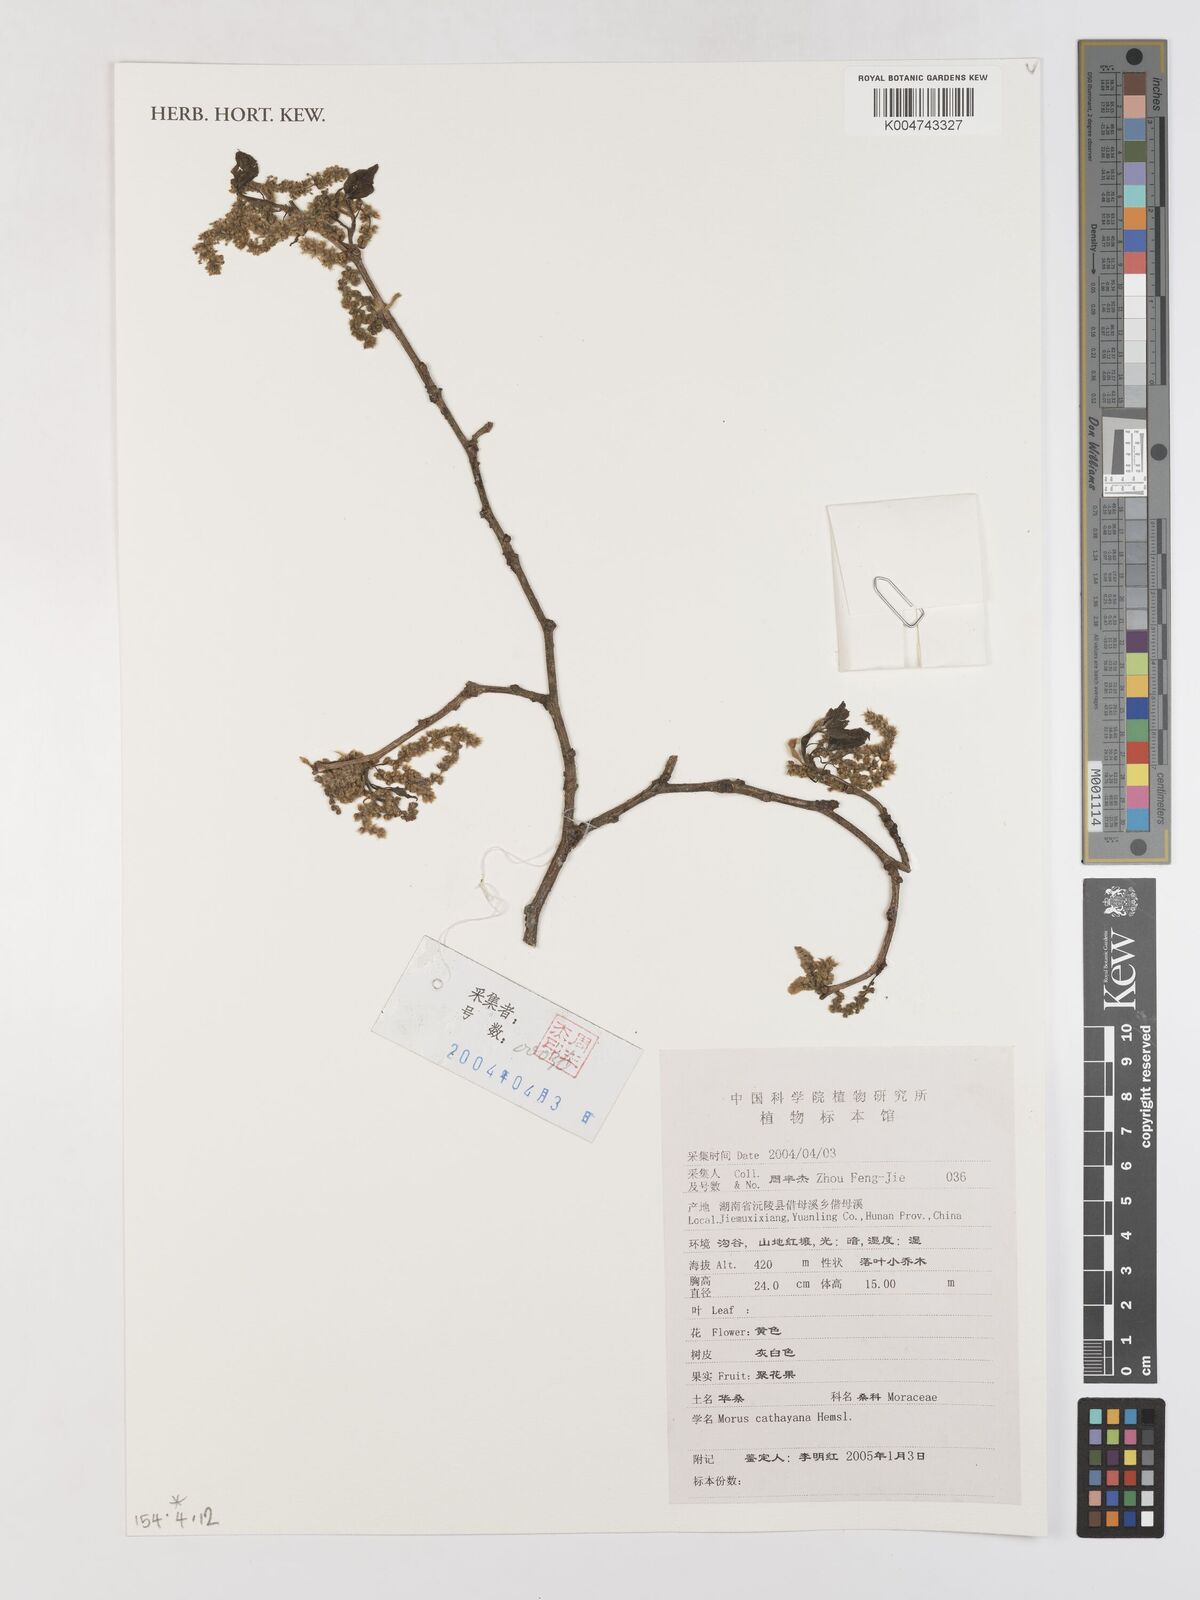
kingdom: Plantae
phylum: Tracheophyta
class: Magnoliopsida
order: Rosales
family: Moraceae
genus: Morus
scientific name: Morus cathayana
